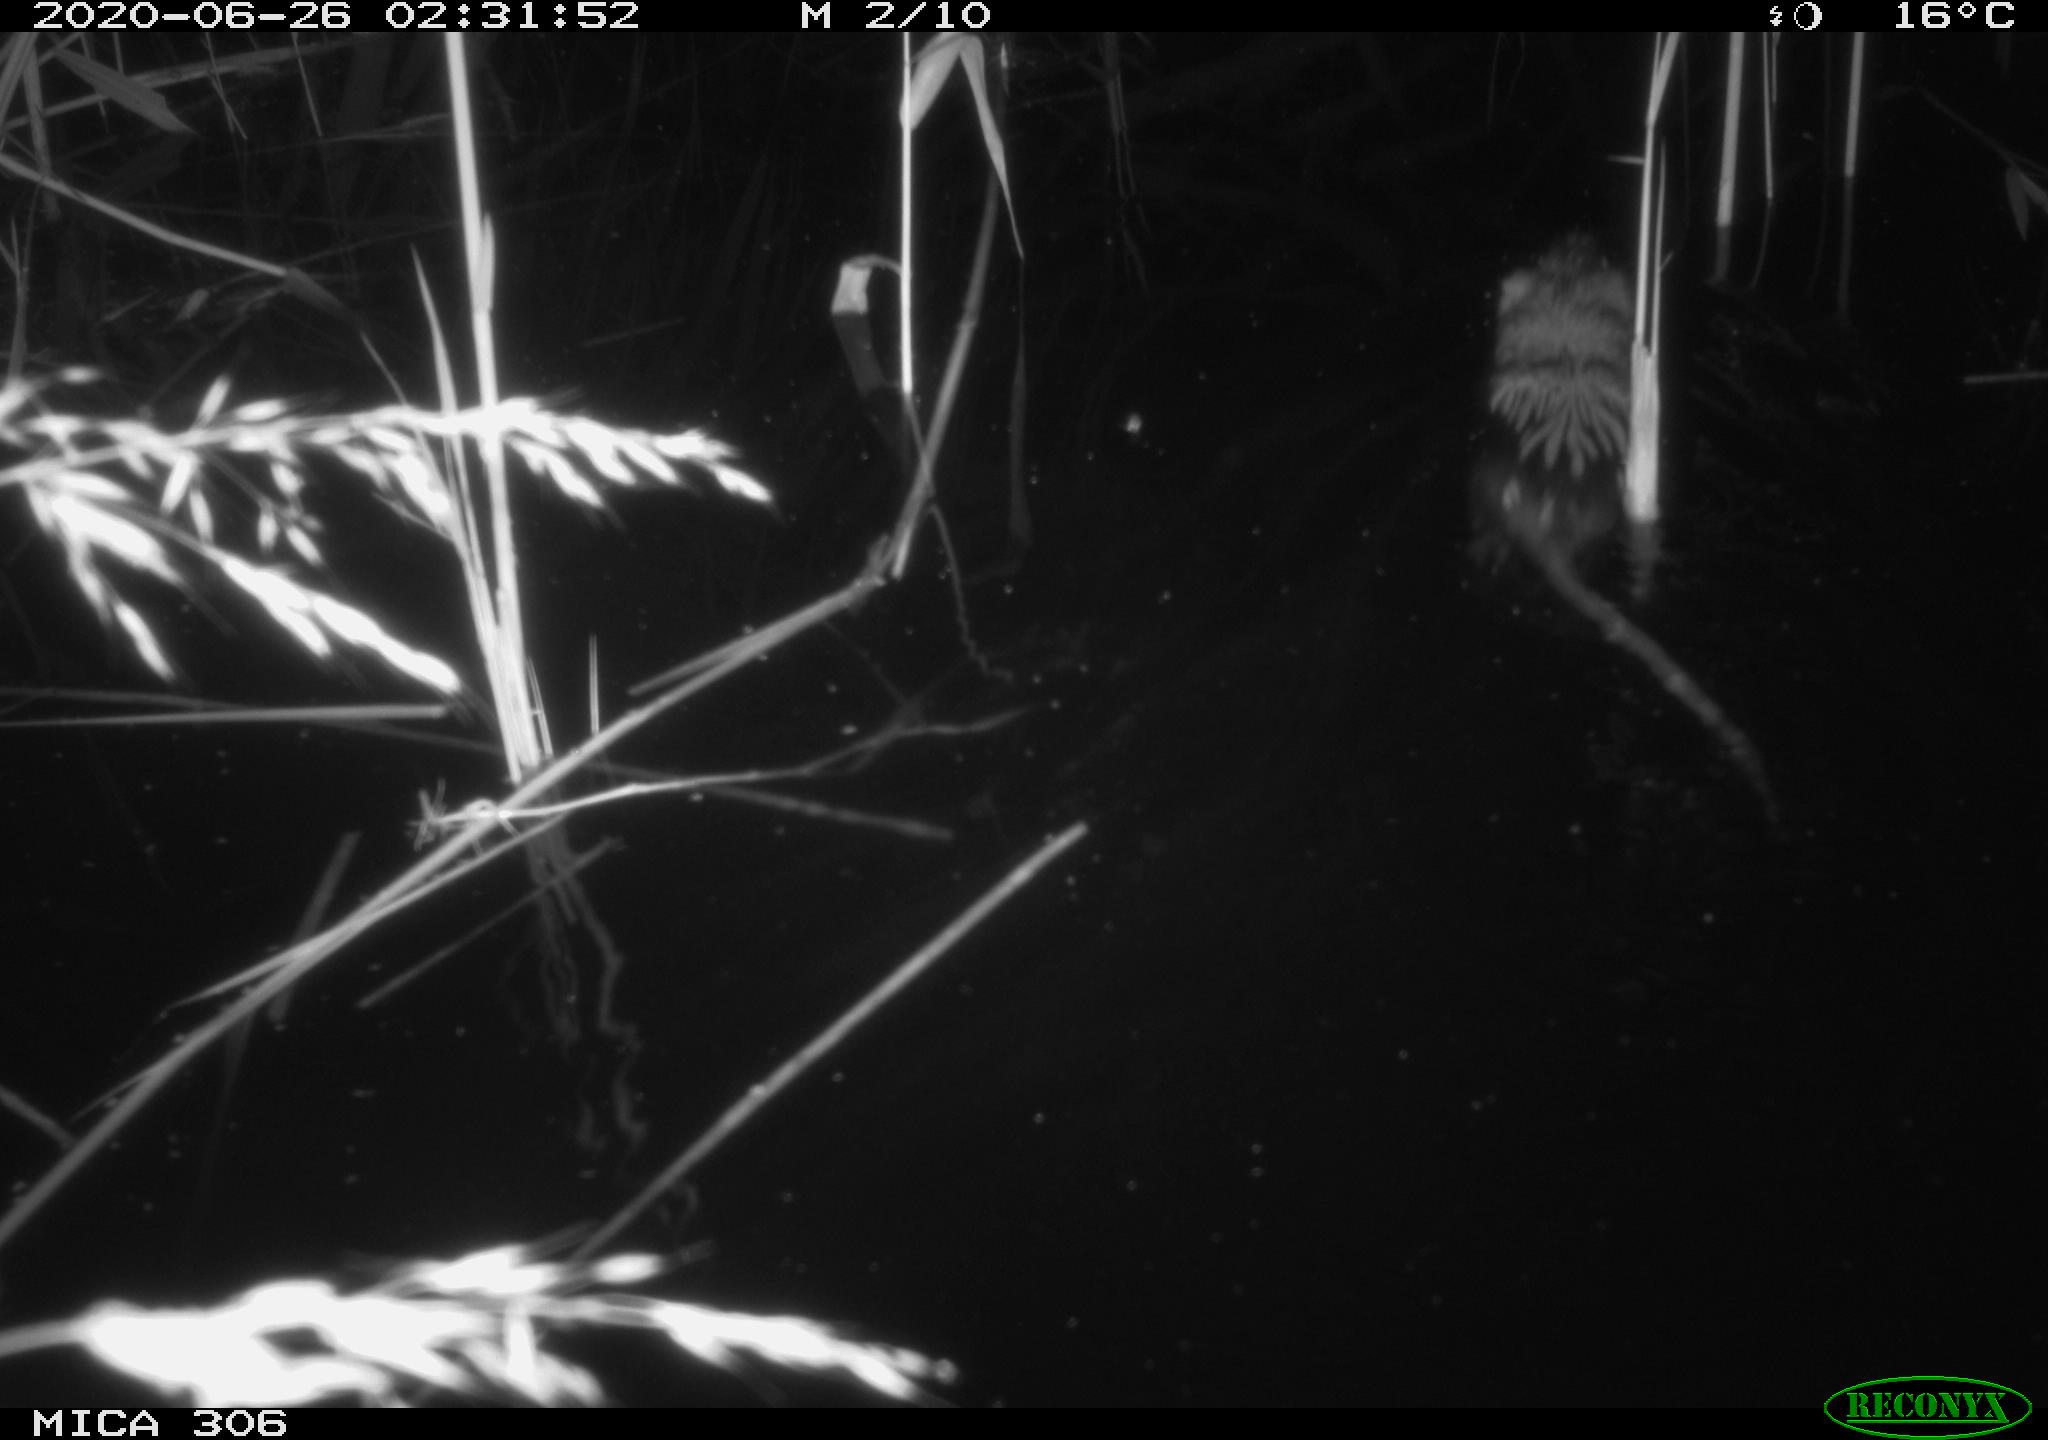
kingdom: Animalia
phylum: Chordata
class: Mammalia
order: Rodentia
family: Muridae
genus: Rattus
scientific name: Rattus norvegicus
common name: Brown rat
